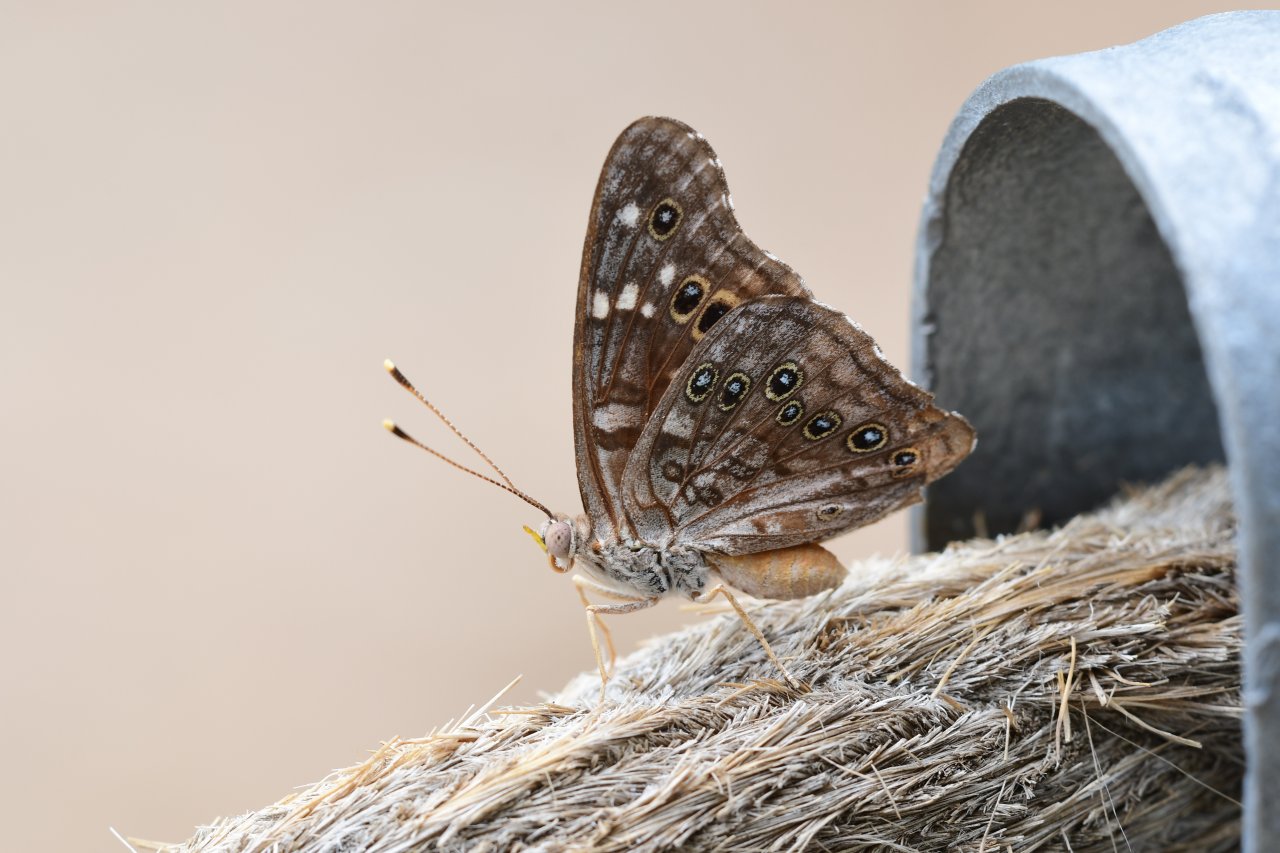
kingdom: Animalia
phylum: Arthropoda
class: Insecta
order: Lepidoptera
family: Nymphalidae
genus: Asterocampa
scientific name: Asterocampa leilia
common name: Empress Leilia
